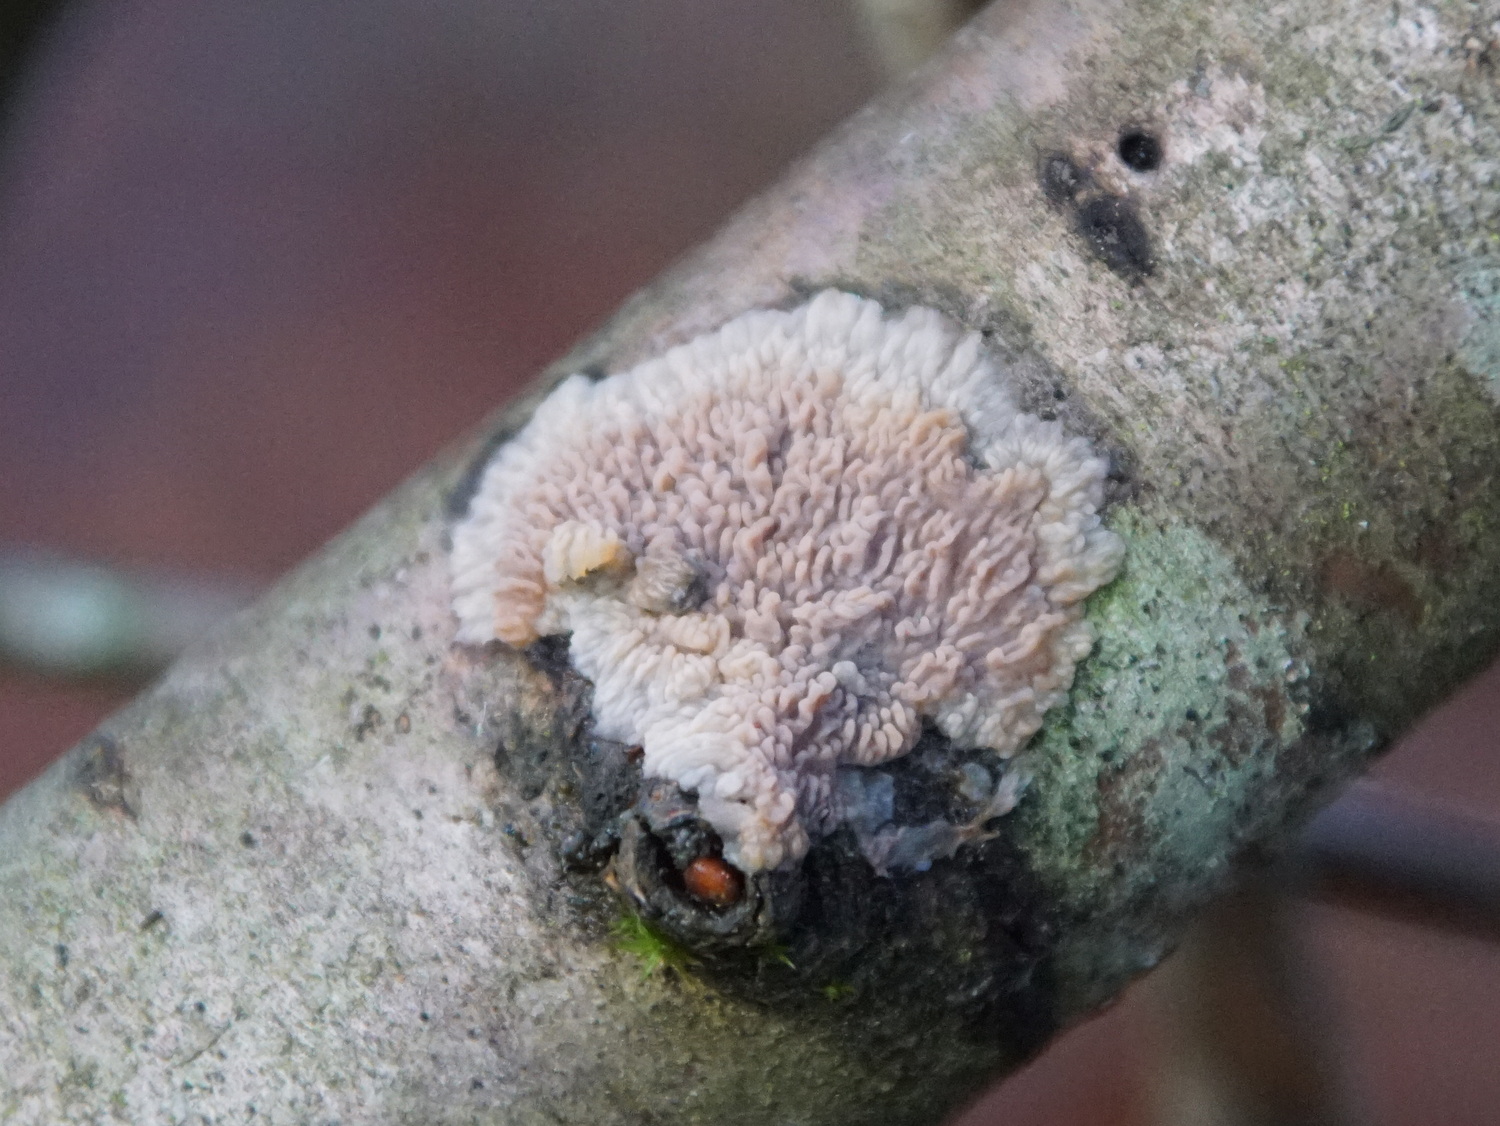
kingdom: Fungi
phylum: Basidiomycota
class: Agaricomycetes
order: Polyporales
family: Meruliaceae
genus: Phlebia
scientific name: Phlebia radiata
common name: stråle-åresvamp
